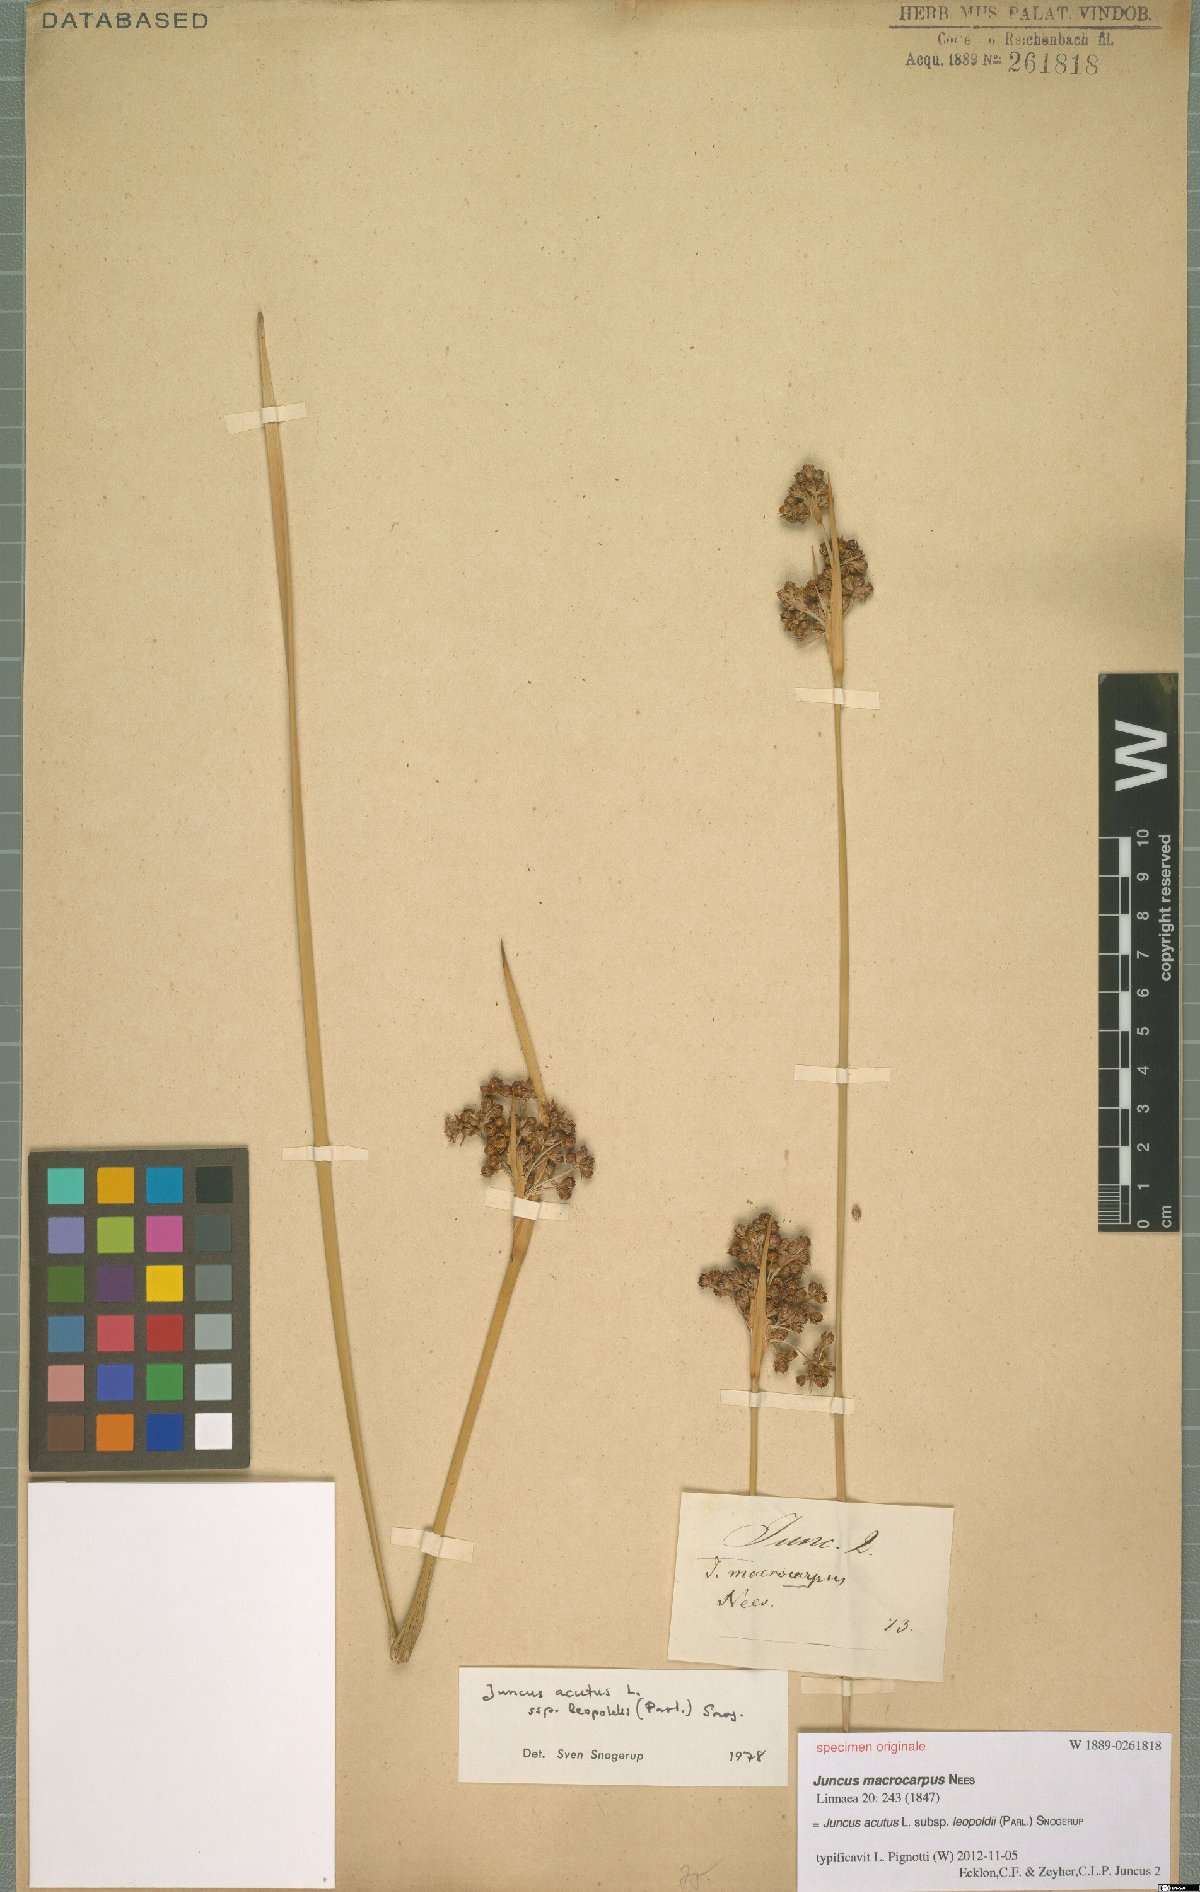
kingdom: Plantae
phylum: Tracheophyta
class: Liliopsida
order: Poales
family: Juncaceae
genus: Juncus
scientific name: Juncus acutus
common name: Sharp rush
